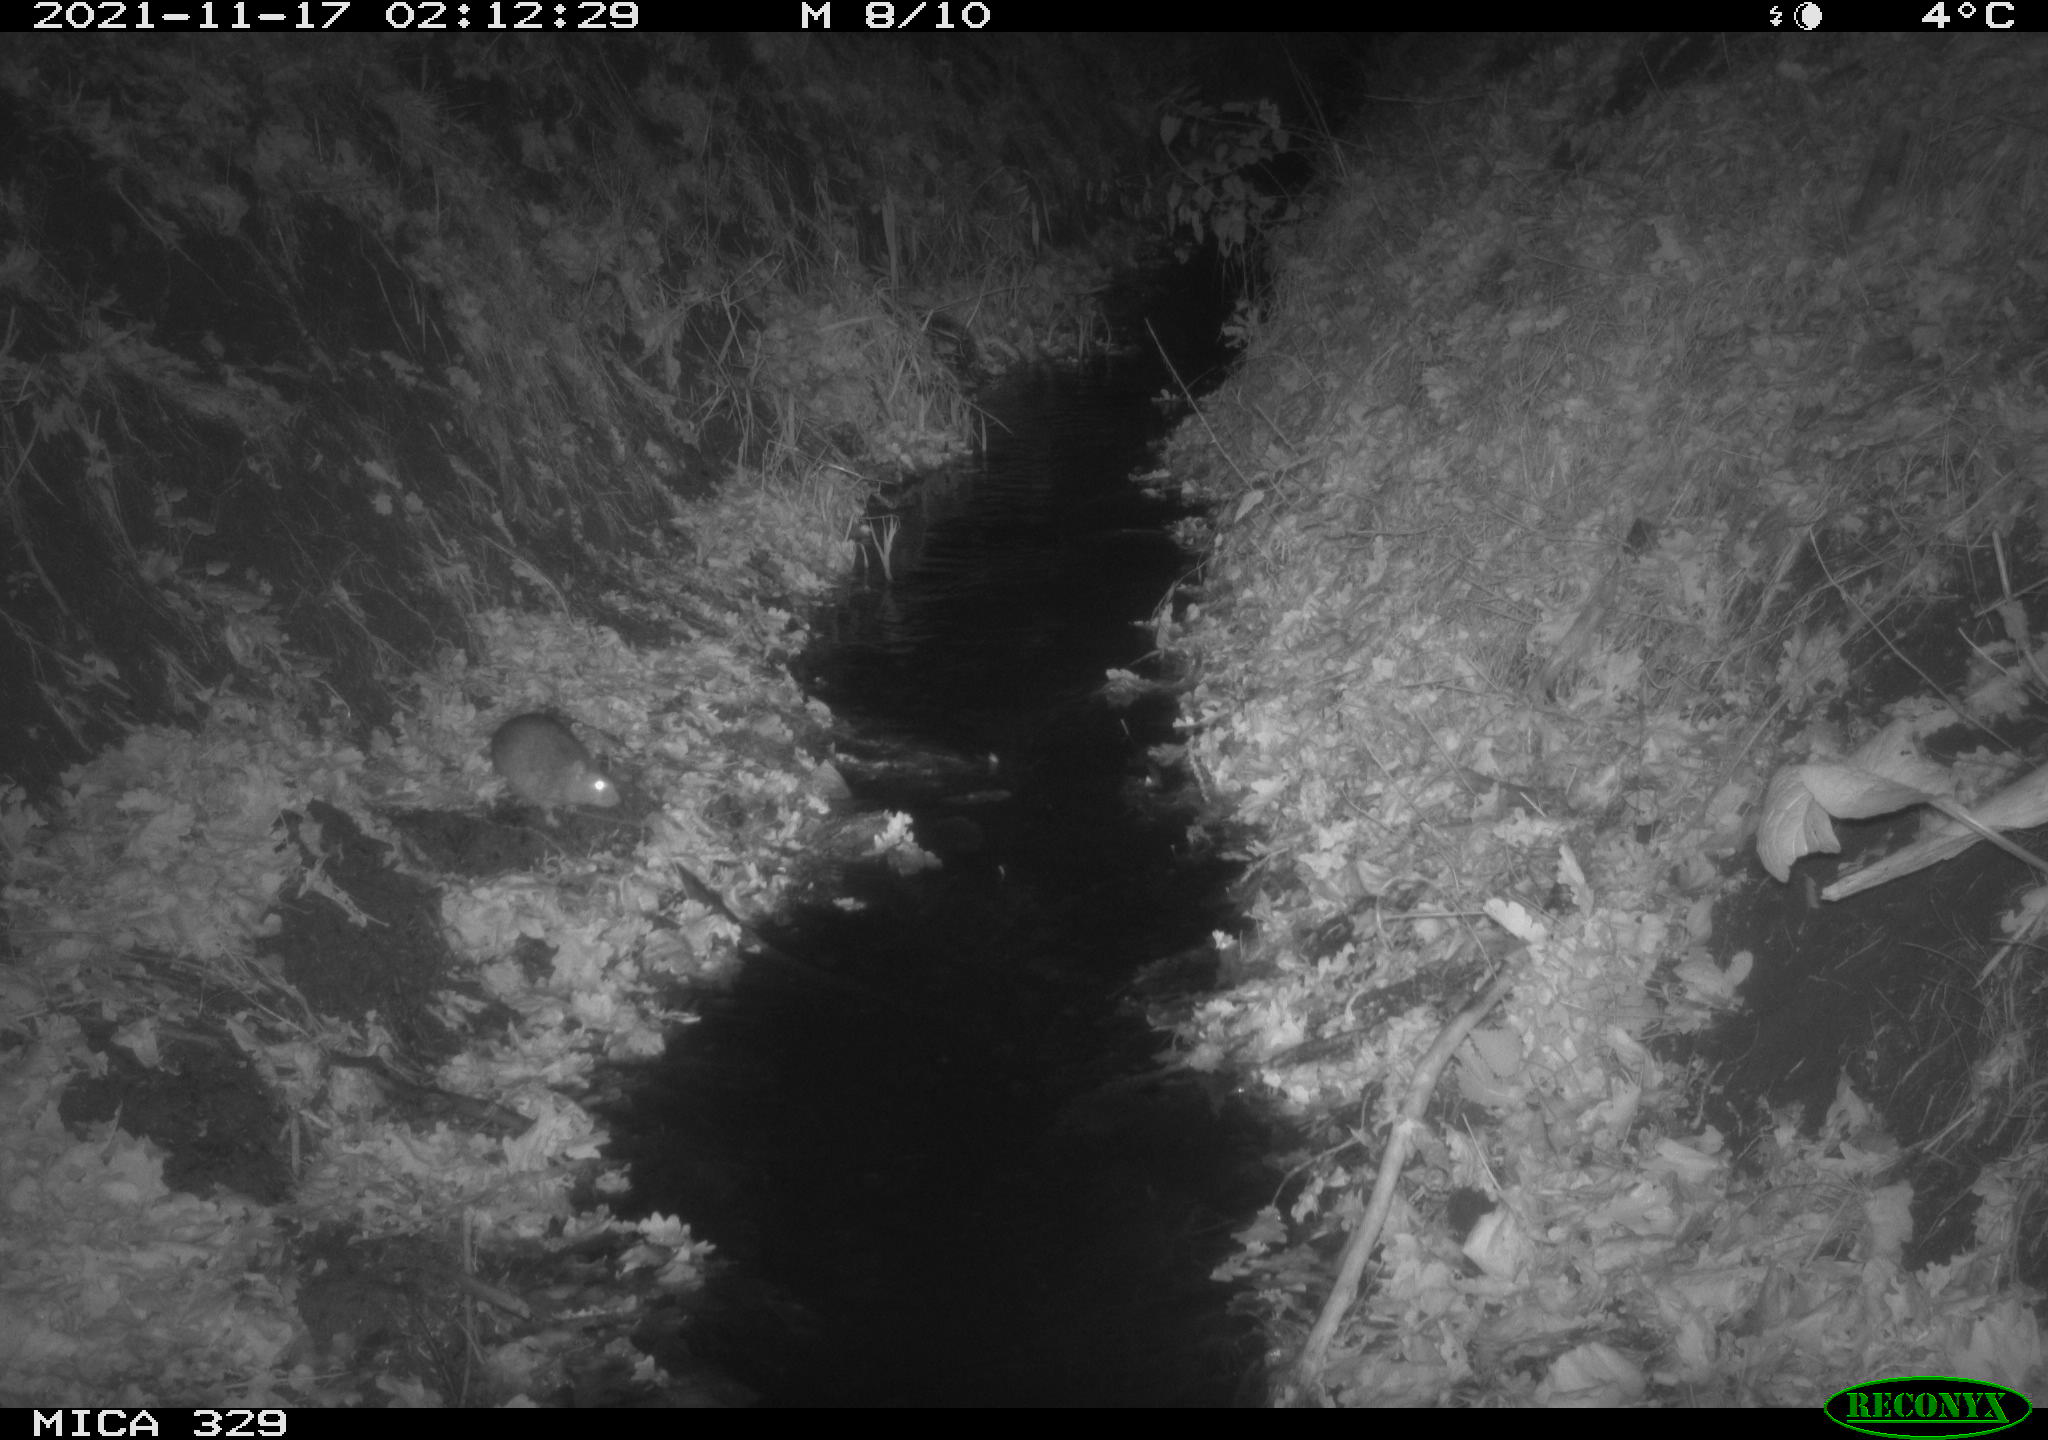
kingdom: Animalia
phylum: Chordata
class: Mammalia
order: Rodentia
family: Muridae
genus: Rattus
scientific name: Rattus norvegicus
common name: Brown rat
